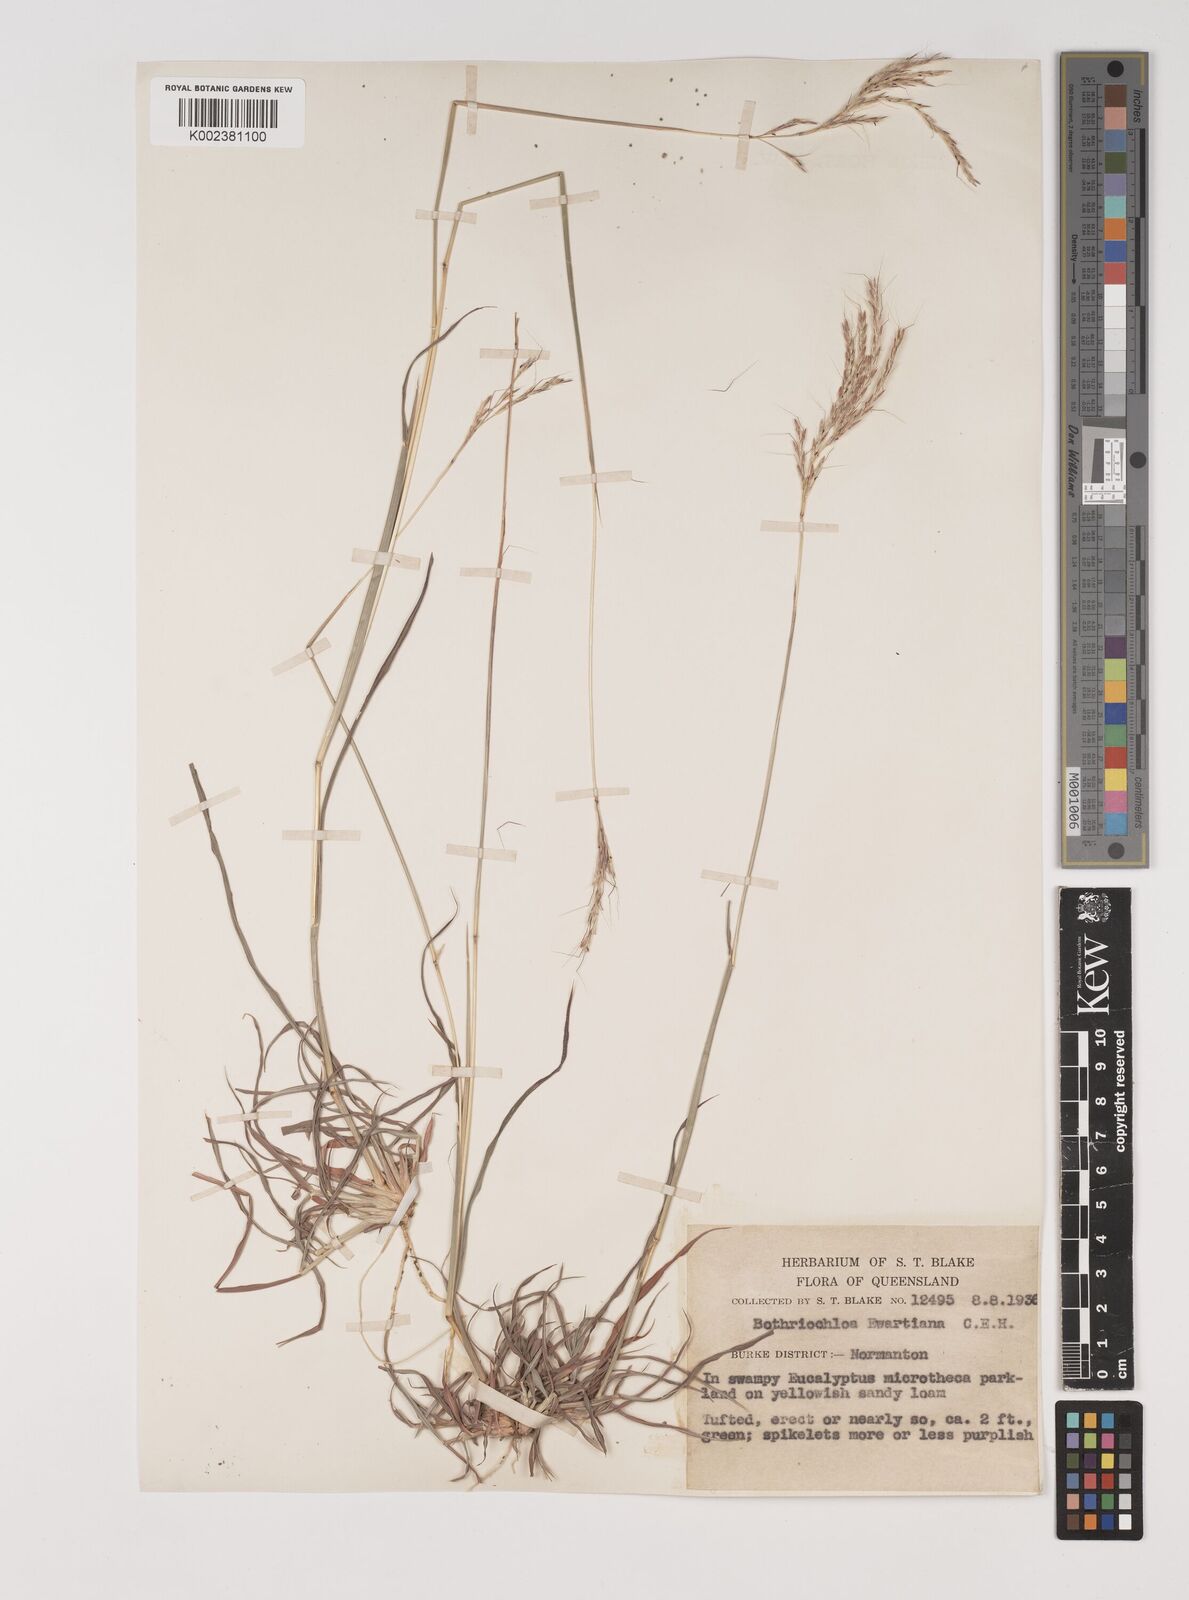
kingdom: Plantae
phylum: Tracheophyta
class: Liliopsida
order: Poales
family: Poaceae
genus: Bothriochloa
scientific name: Bothriochloa ewartiana
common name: Desert-bluegrass
